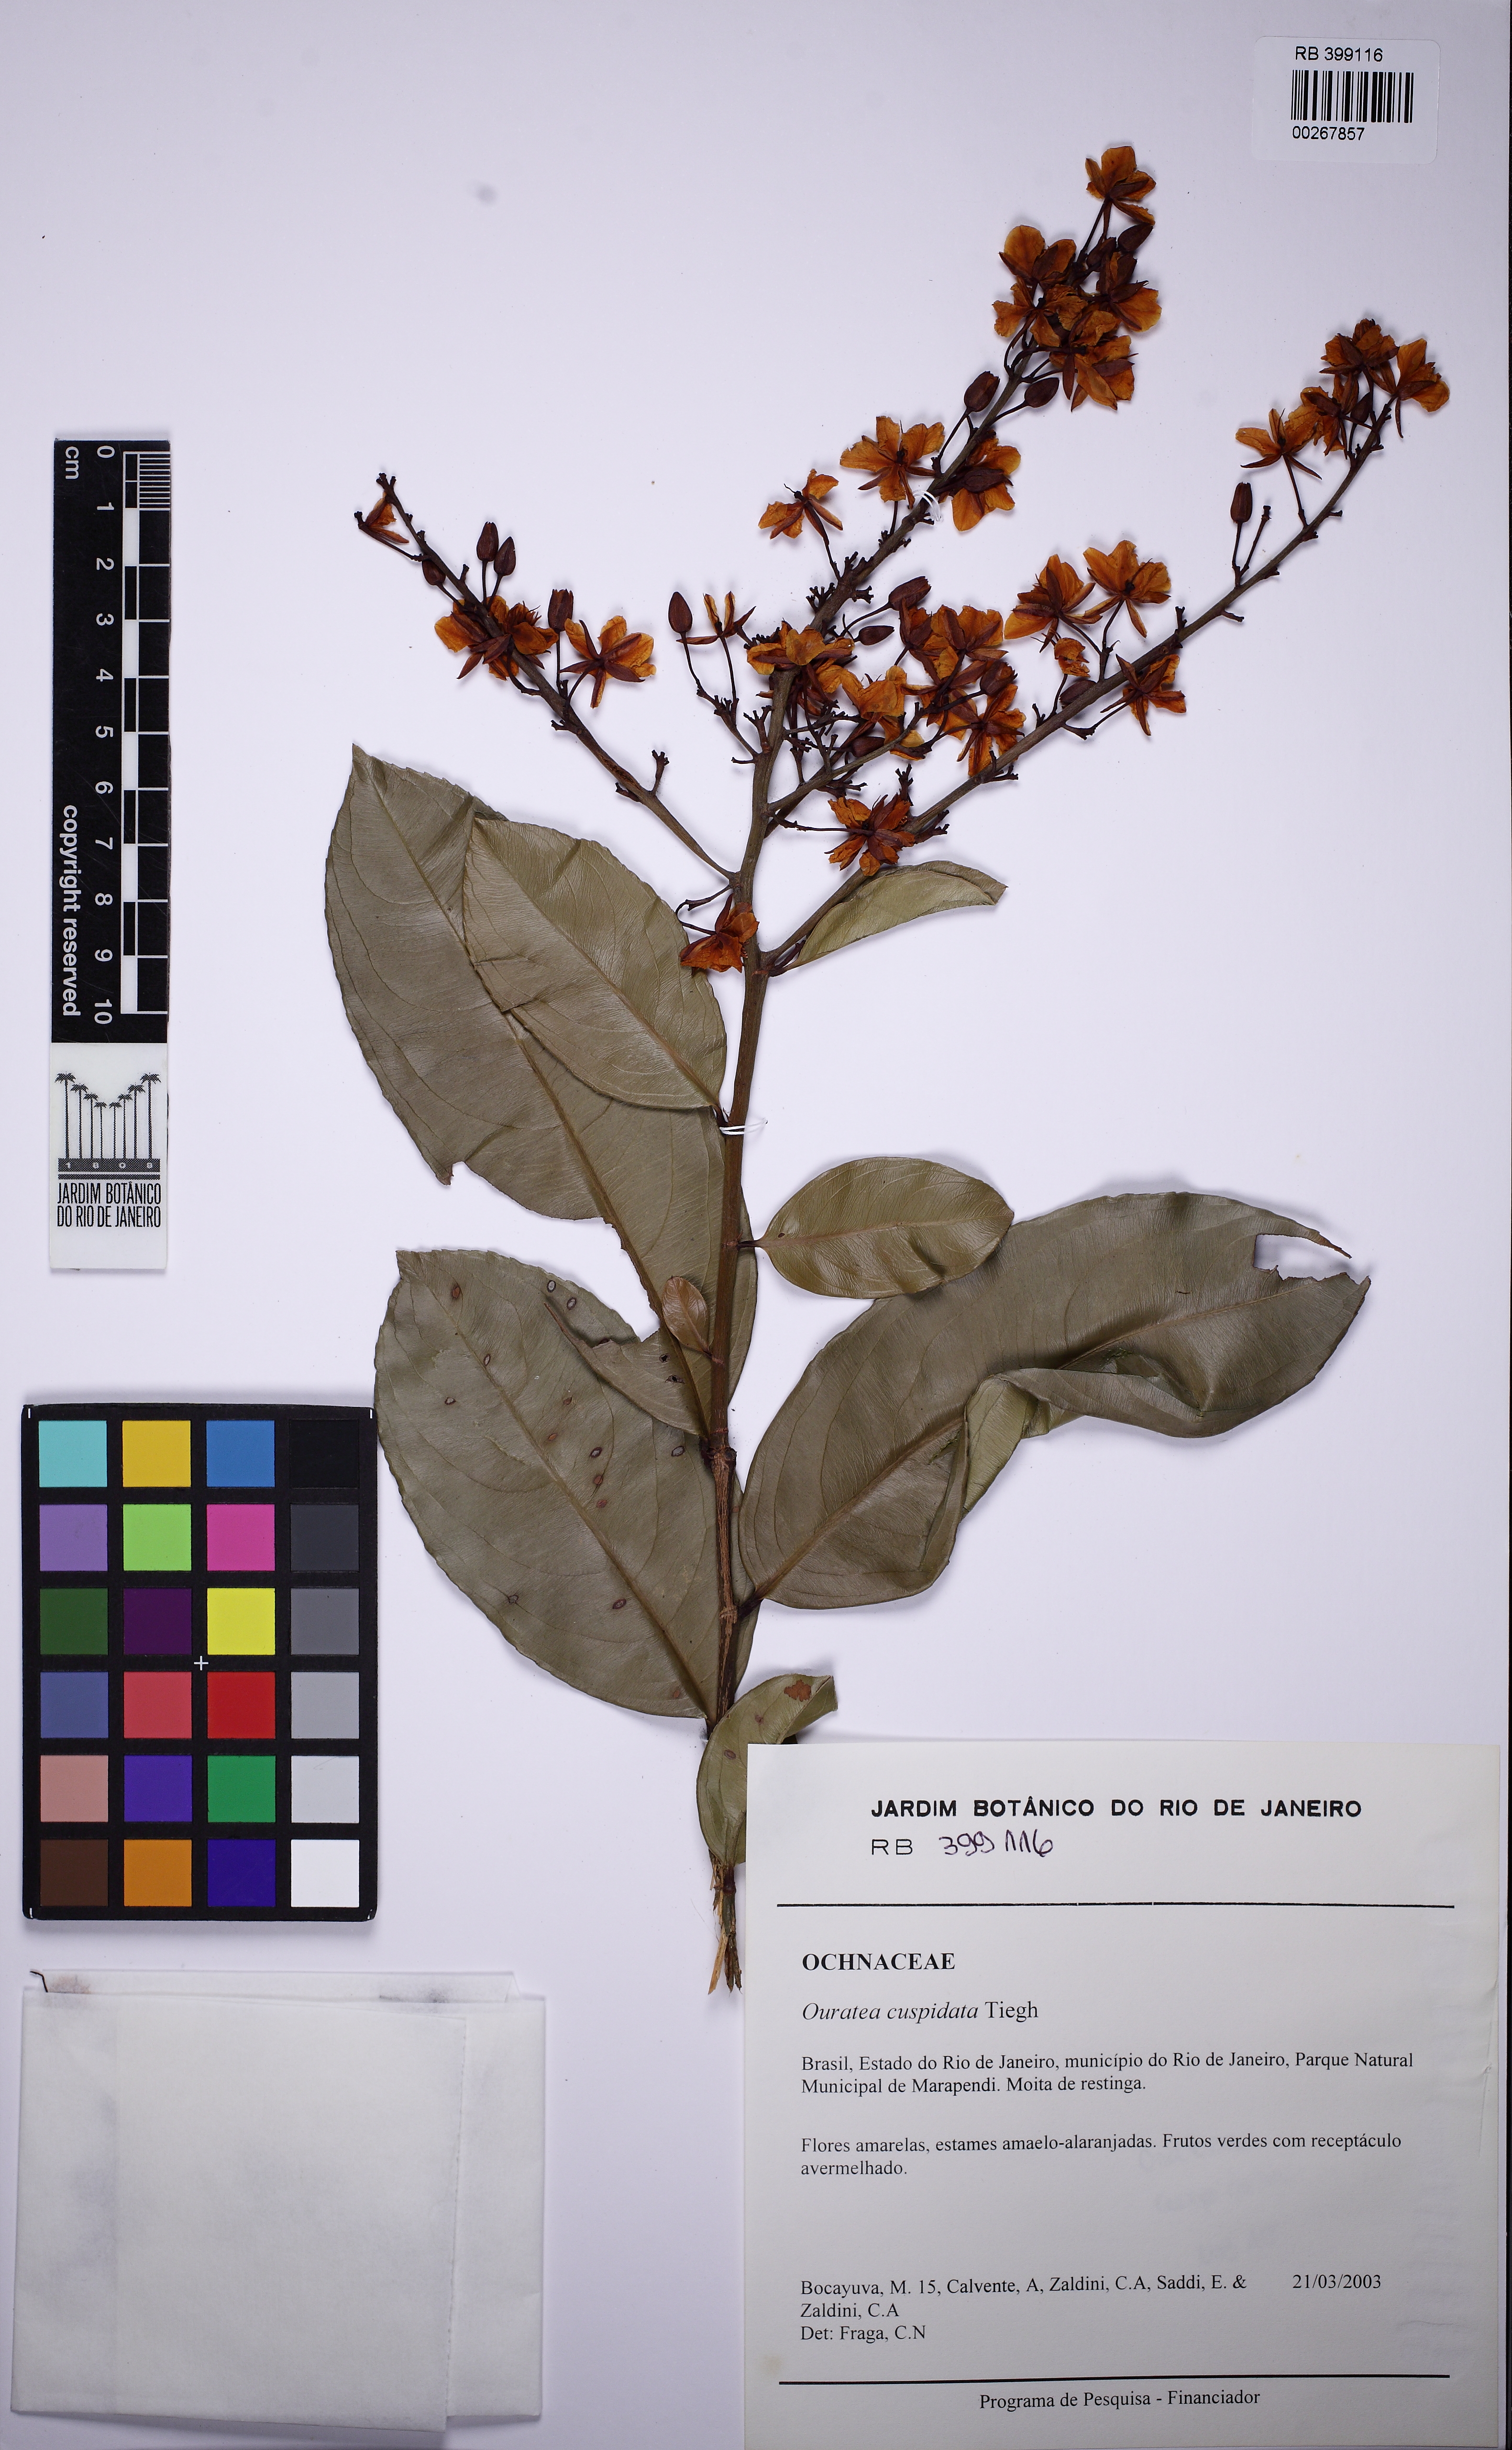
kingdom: Plantae
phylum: Tracheophyta
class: Magnoliopsida
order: Malpighiales
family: Ochnaceae
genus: Ouratea
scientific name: Ouratea cuspidata
